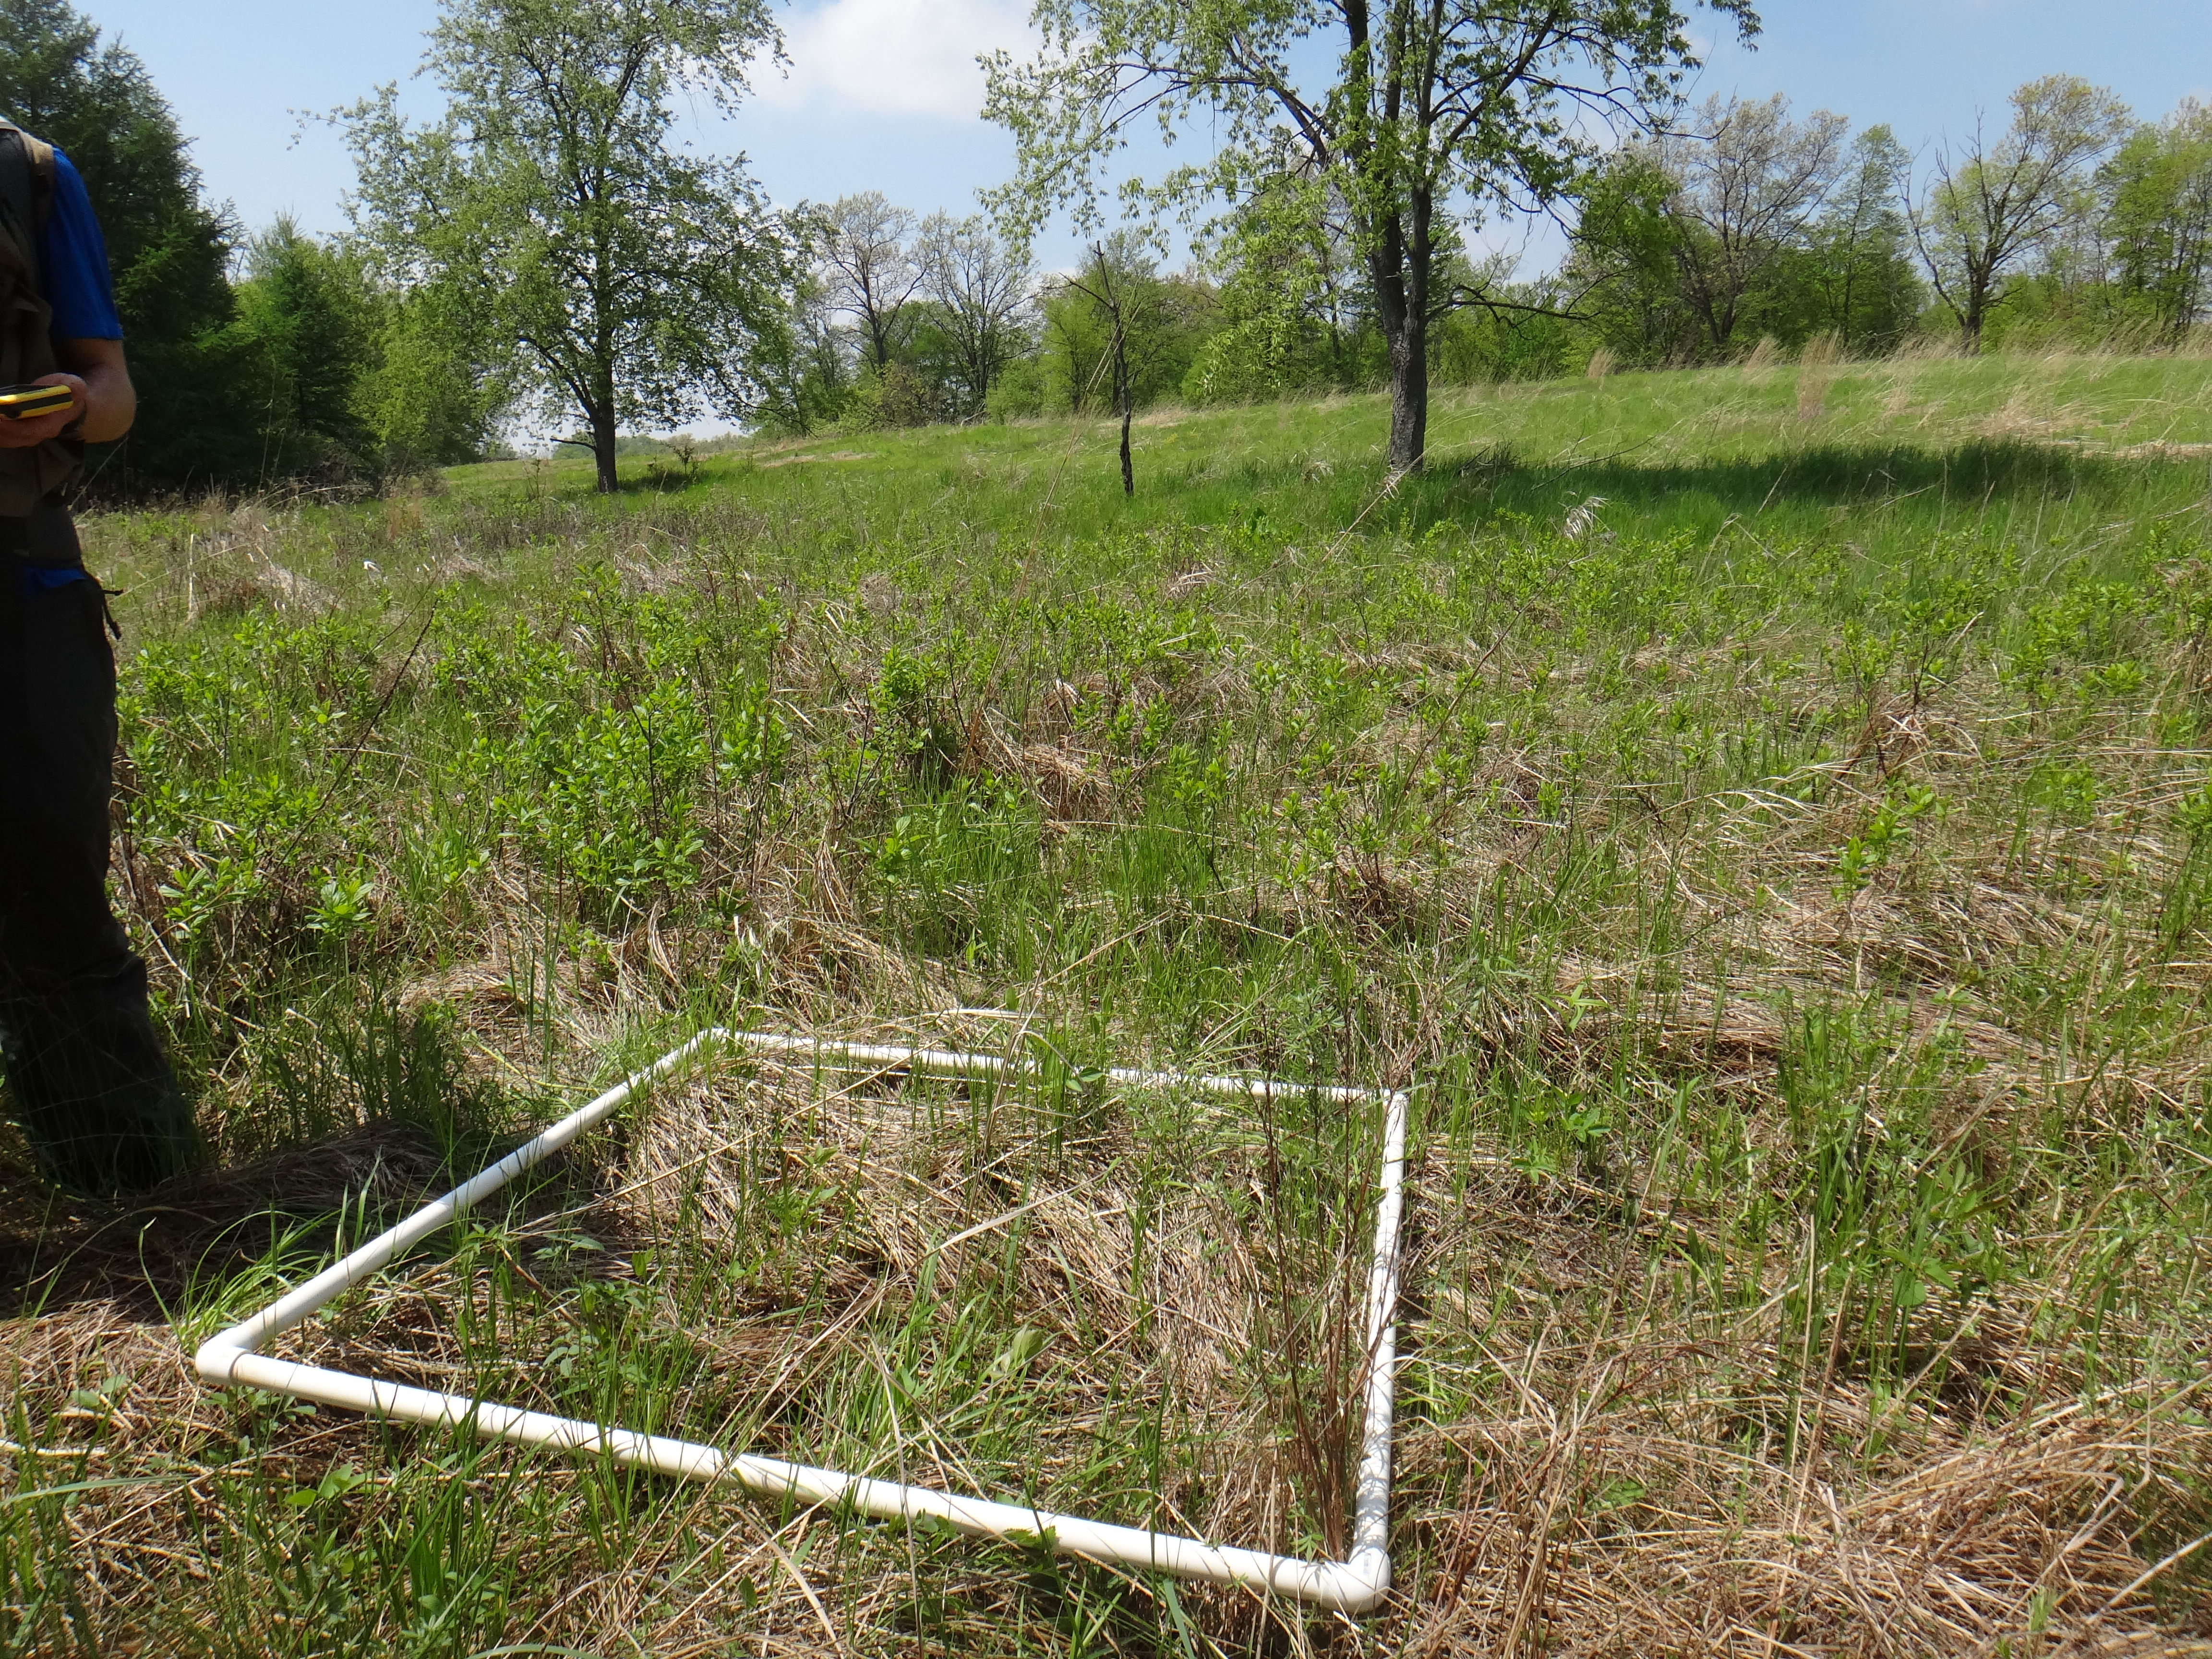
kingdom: Plantae
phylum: Tracheophyta
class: Magnoliopsida
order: Apiales
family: Apiaceae
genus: Oxypolis
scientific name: Oxypolis rigidior
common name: Cowbane
